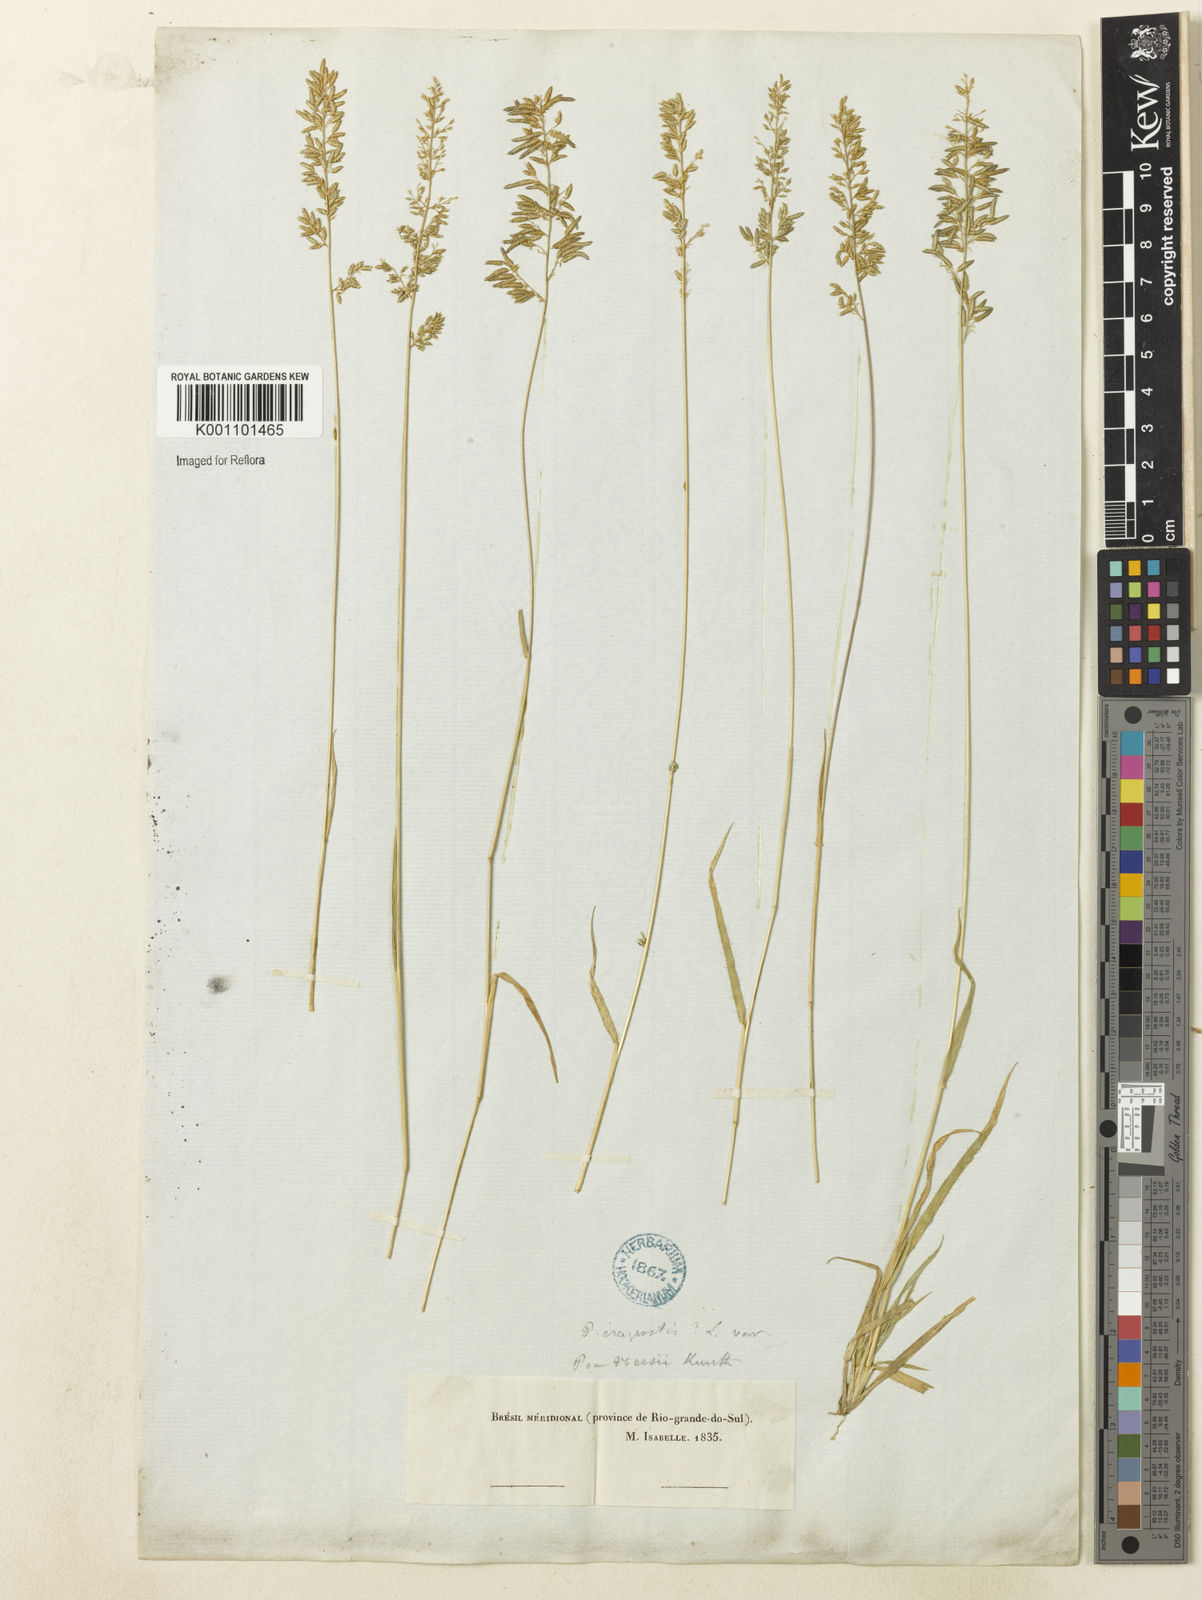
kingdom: Plantae
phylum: Tracheophyta
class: Liliopsida
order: Poales
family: Poaceae
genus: Eragrostis
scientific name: Eragrostis neesii
